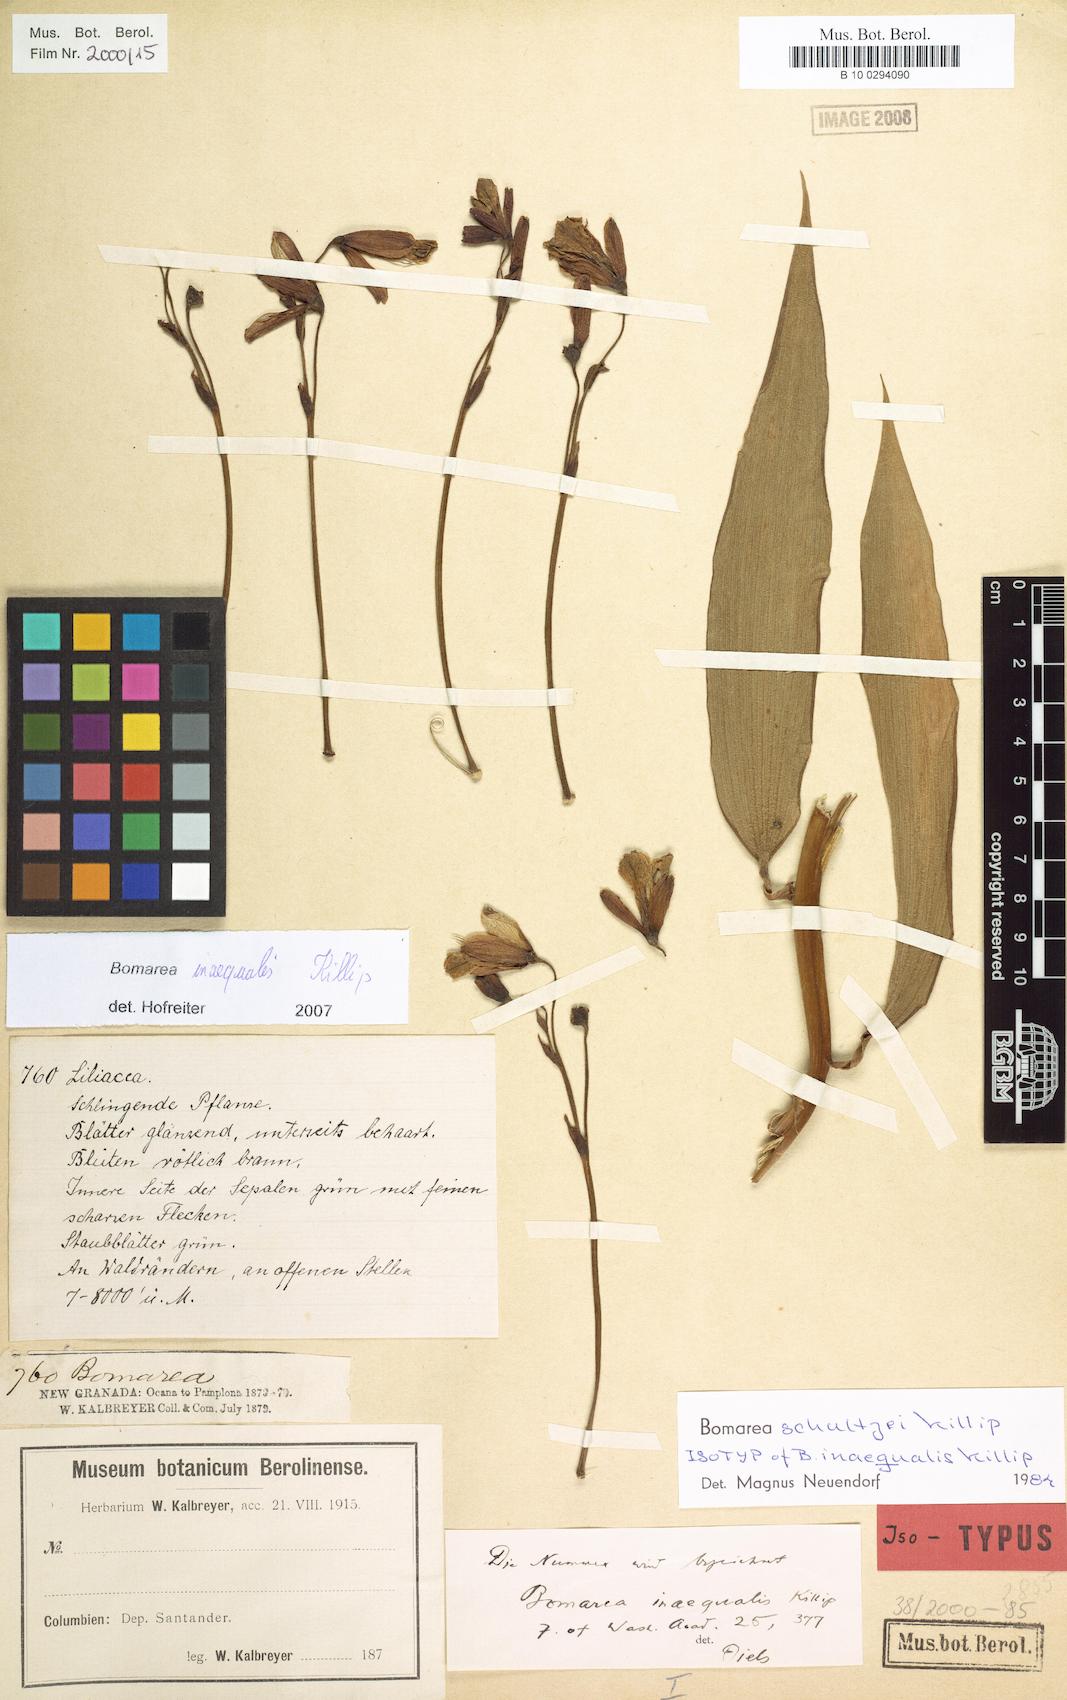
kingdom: Plantae
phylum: Tracheophyta
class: Liliopsida
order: Liliales
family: Alstroemeriaceae
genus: Bomarea
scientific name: Bomarea inaequalis
